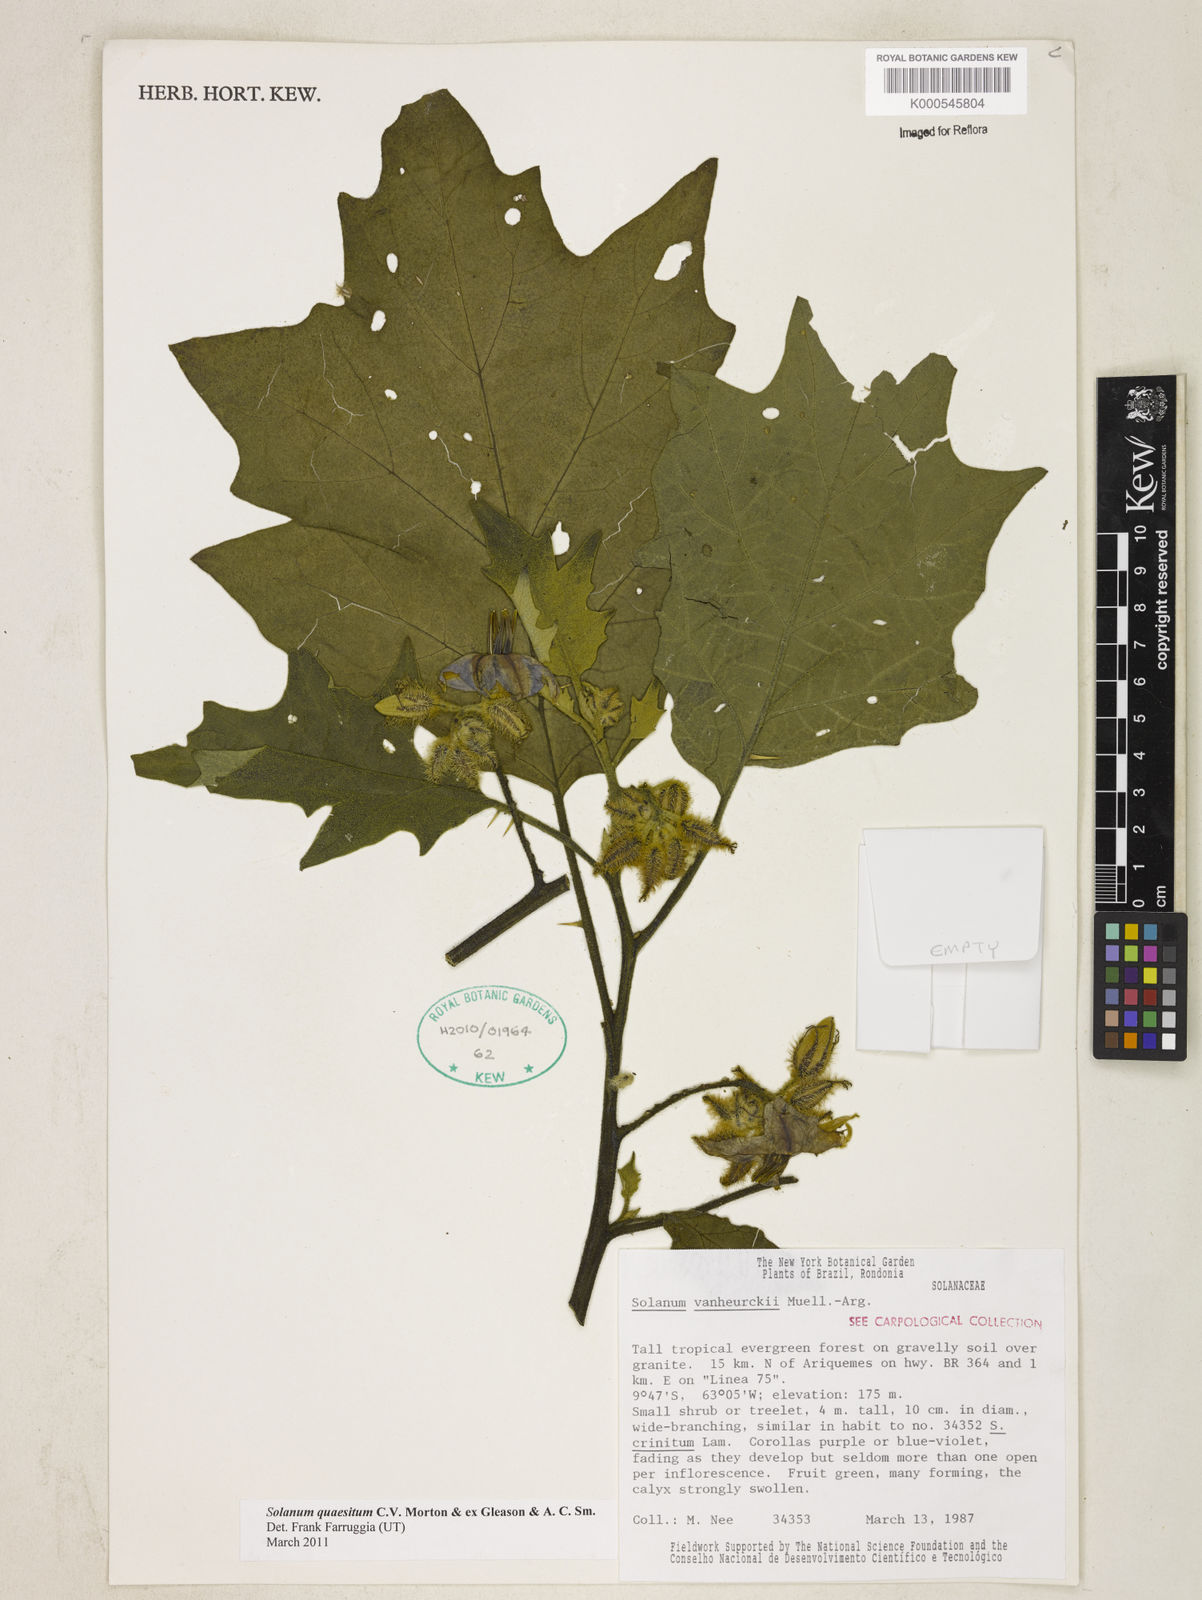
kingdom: Plantae
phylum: Tracheophyta
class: Magnoliopsida
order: Solanales
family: Solanaceae
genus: Solanum
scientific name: Solanum
